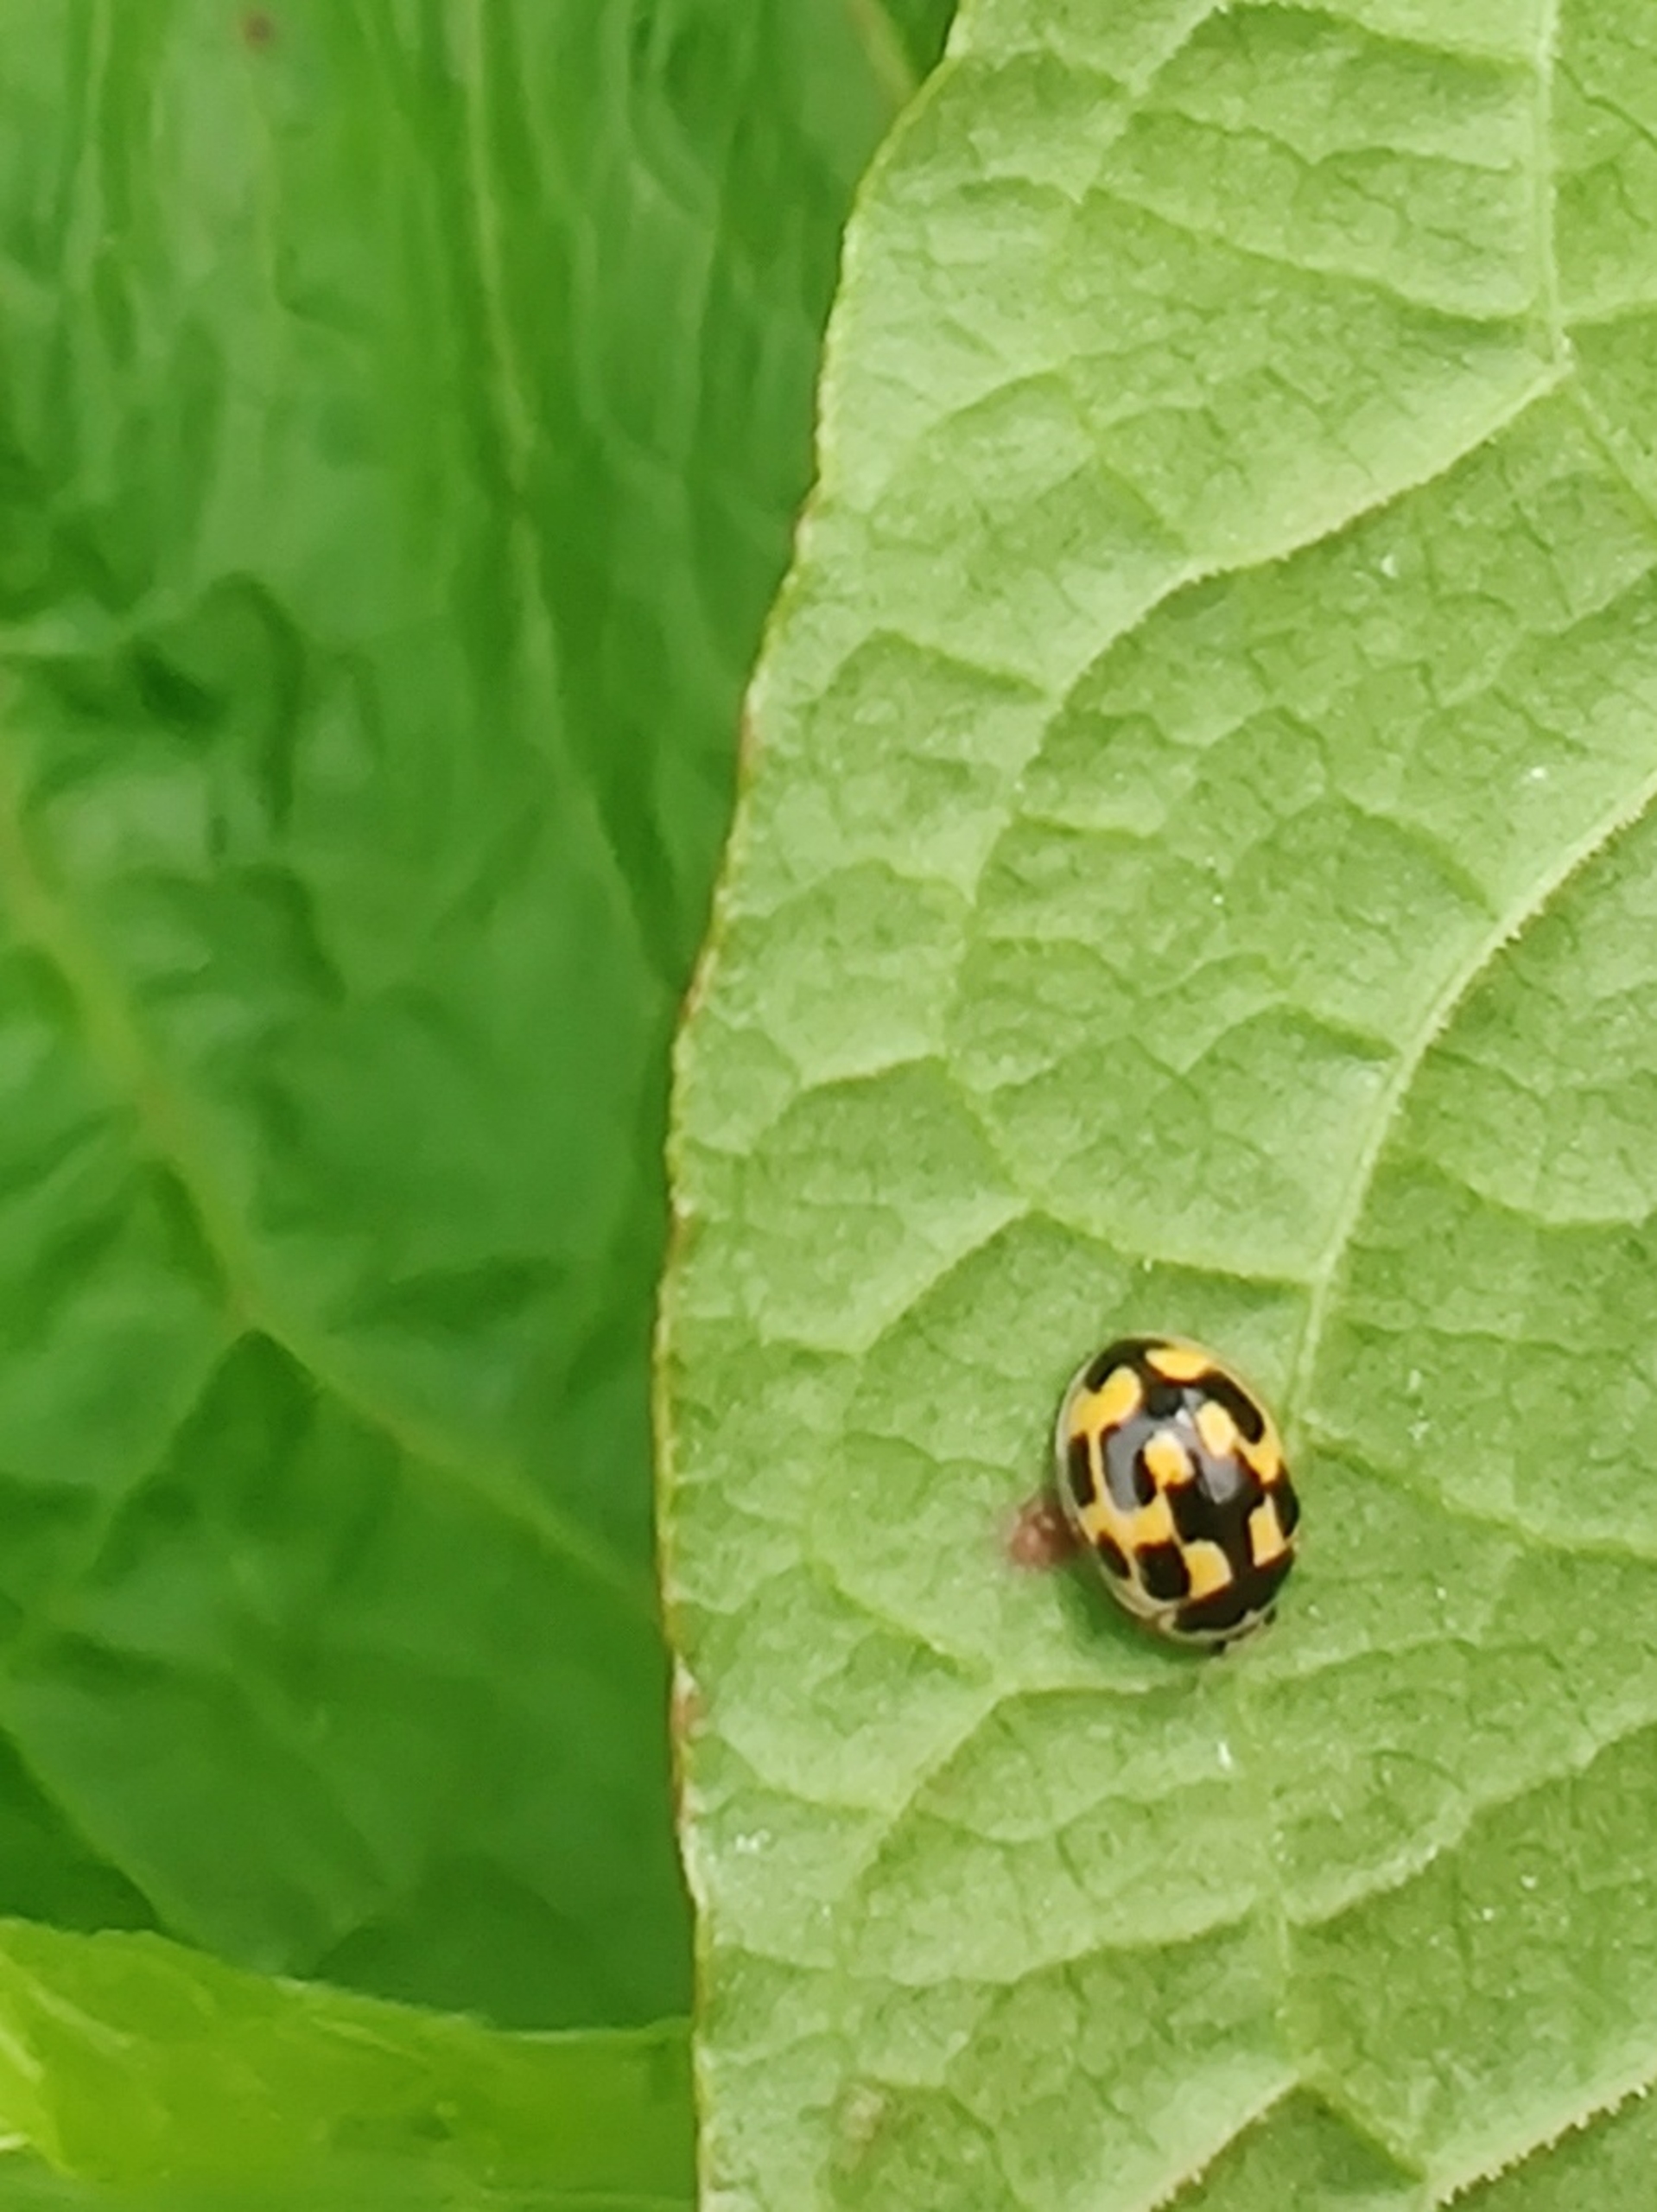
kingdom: Animalia
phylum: Arthropoda
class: Insecta
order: Coleoptera
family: Coccinellidae
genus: Propylaea
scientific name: Propylaea quatuordecimpunctata
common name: Skakbræt
